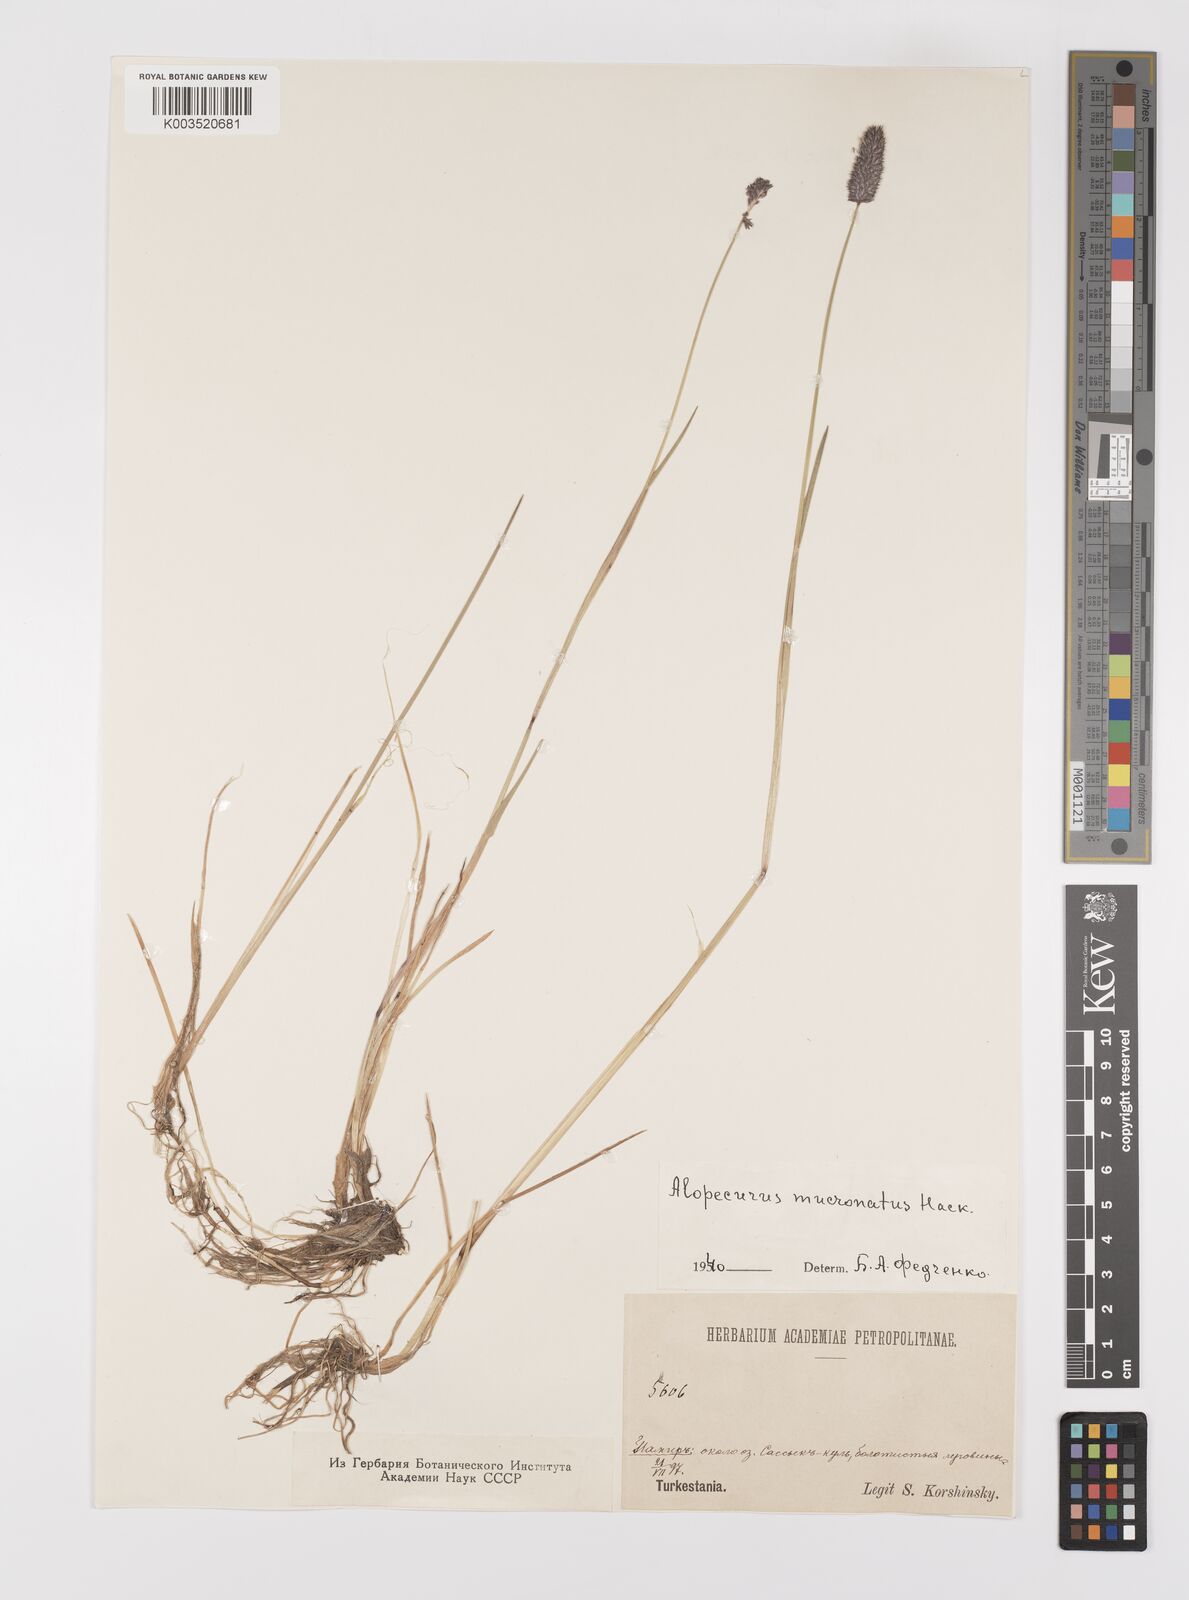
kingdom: Plantae
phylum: Tracheophyta
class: Liliopsida
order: Poales
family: Poaceae
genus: Alopecurus
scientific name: Alopecurus mucronatus
